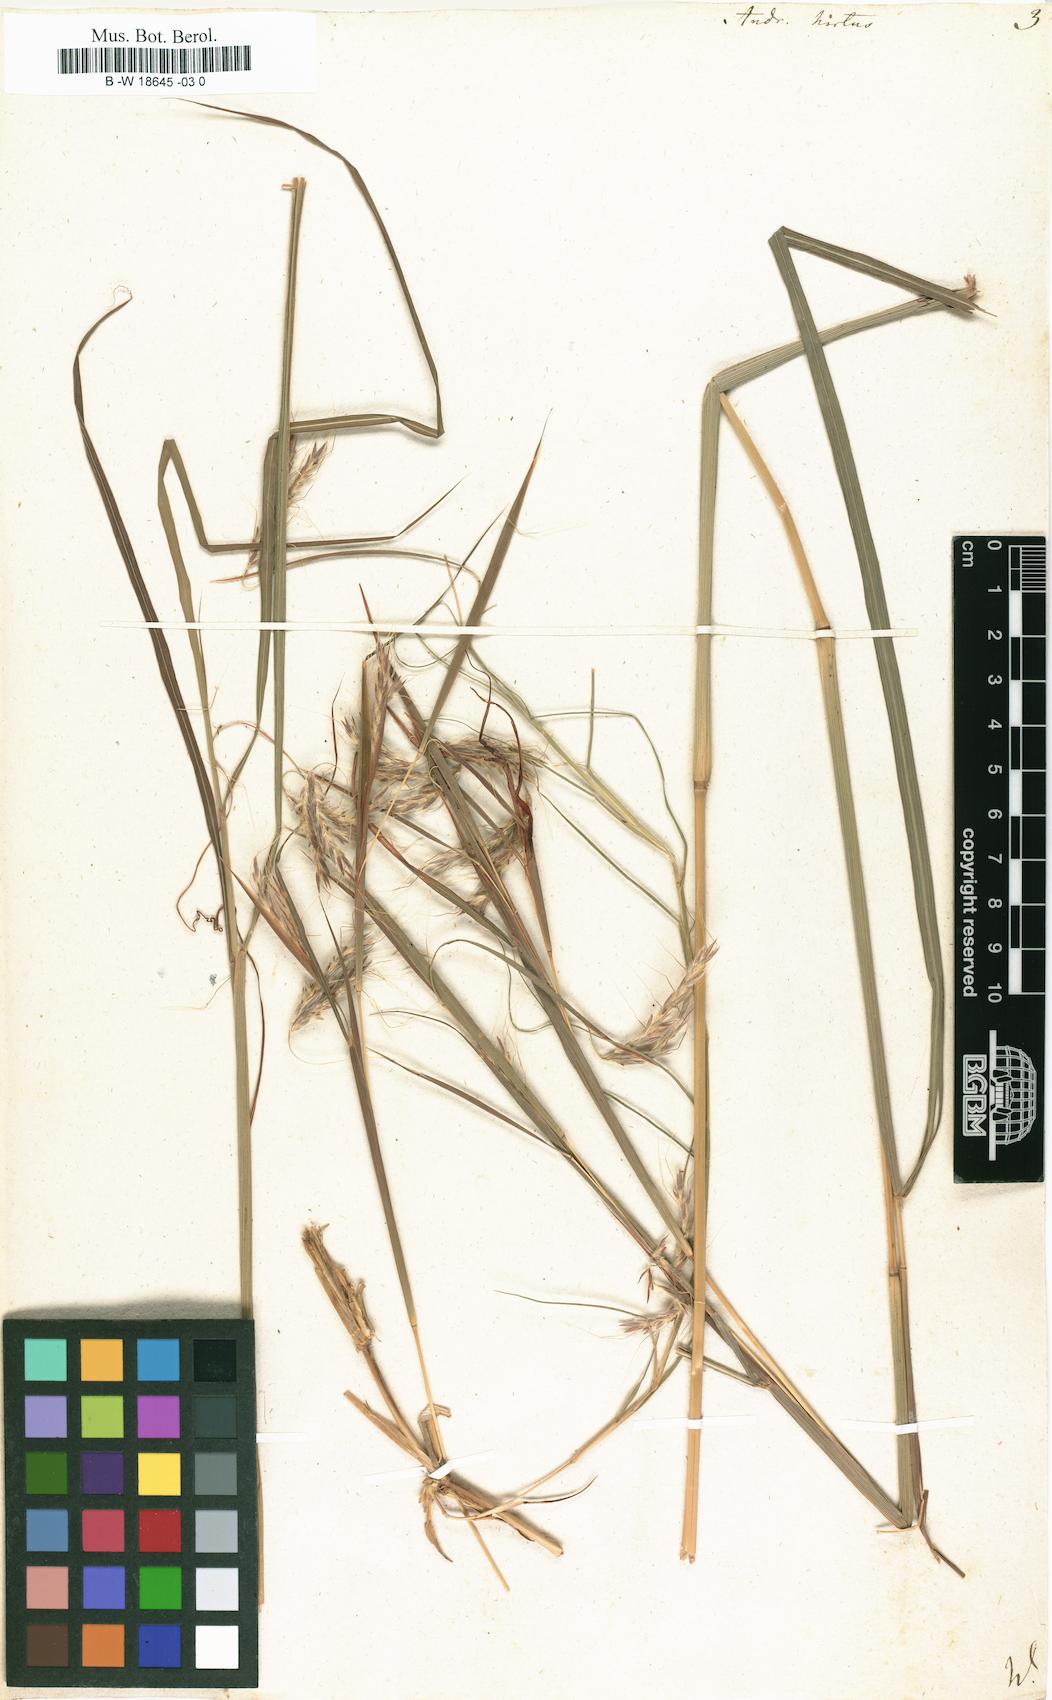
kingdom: Plantae
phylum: Tracheophyta
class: Liliopsida
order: Poales
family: Poaceae
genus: Hyparrhenia
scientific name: Hyparrhenia hirta
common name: Thatching grass
